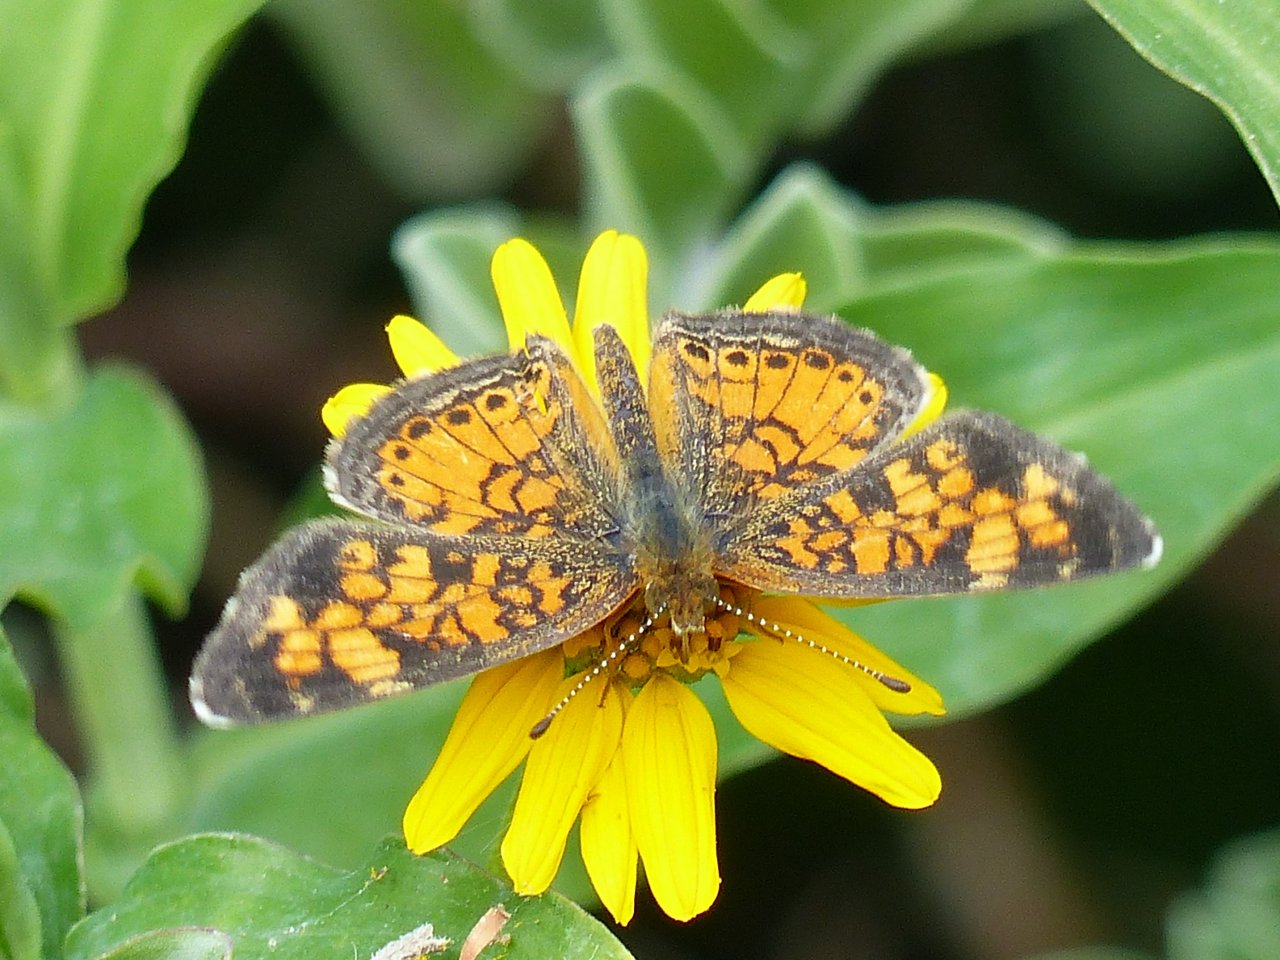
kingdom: Animalia
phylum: Arthropoda
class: Insecta
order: Lepidoptera
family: Nymphalidae
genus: Phyciodes
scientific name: Phyciodes tharos
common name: Pearl Crescent
